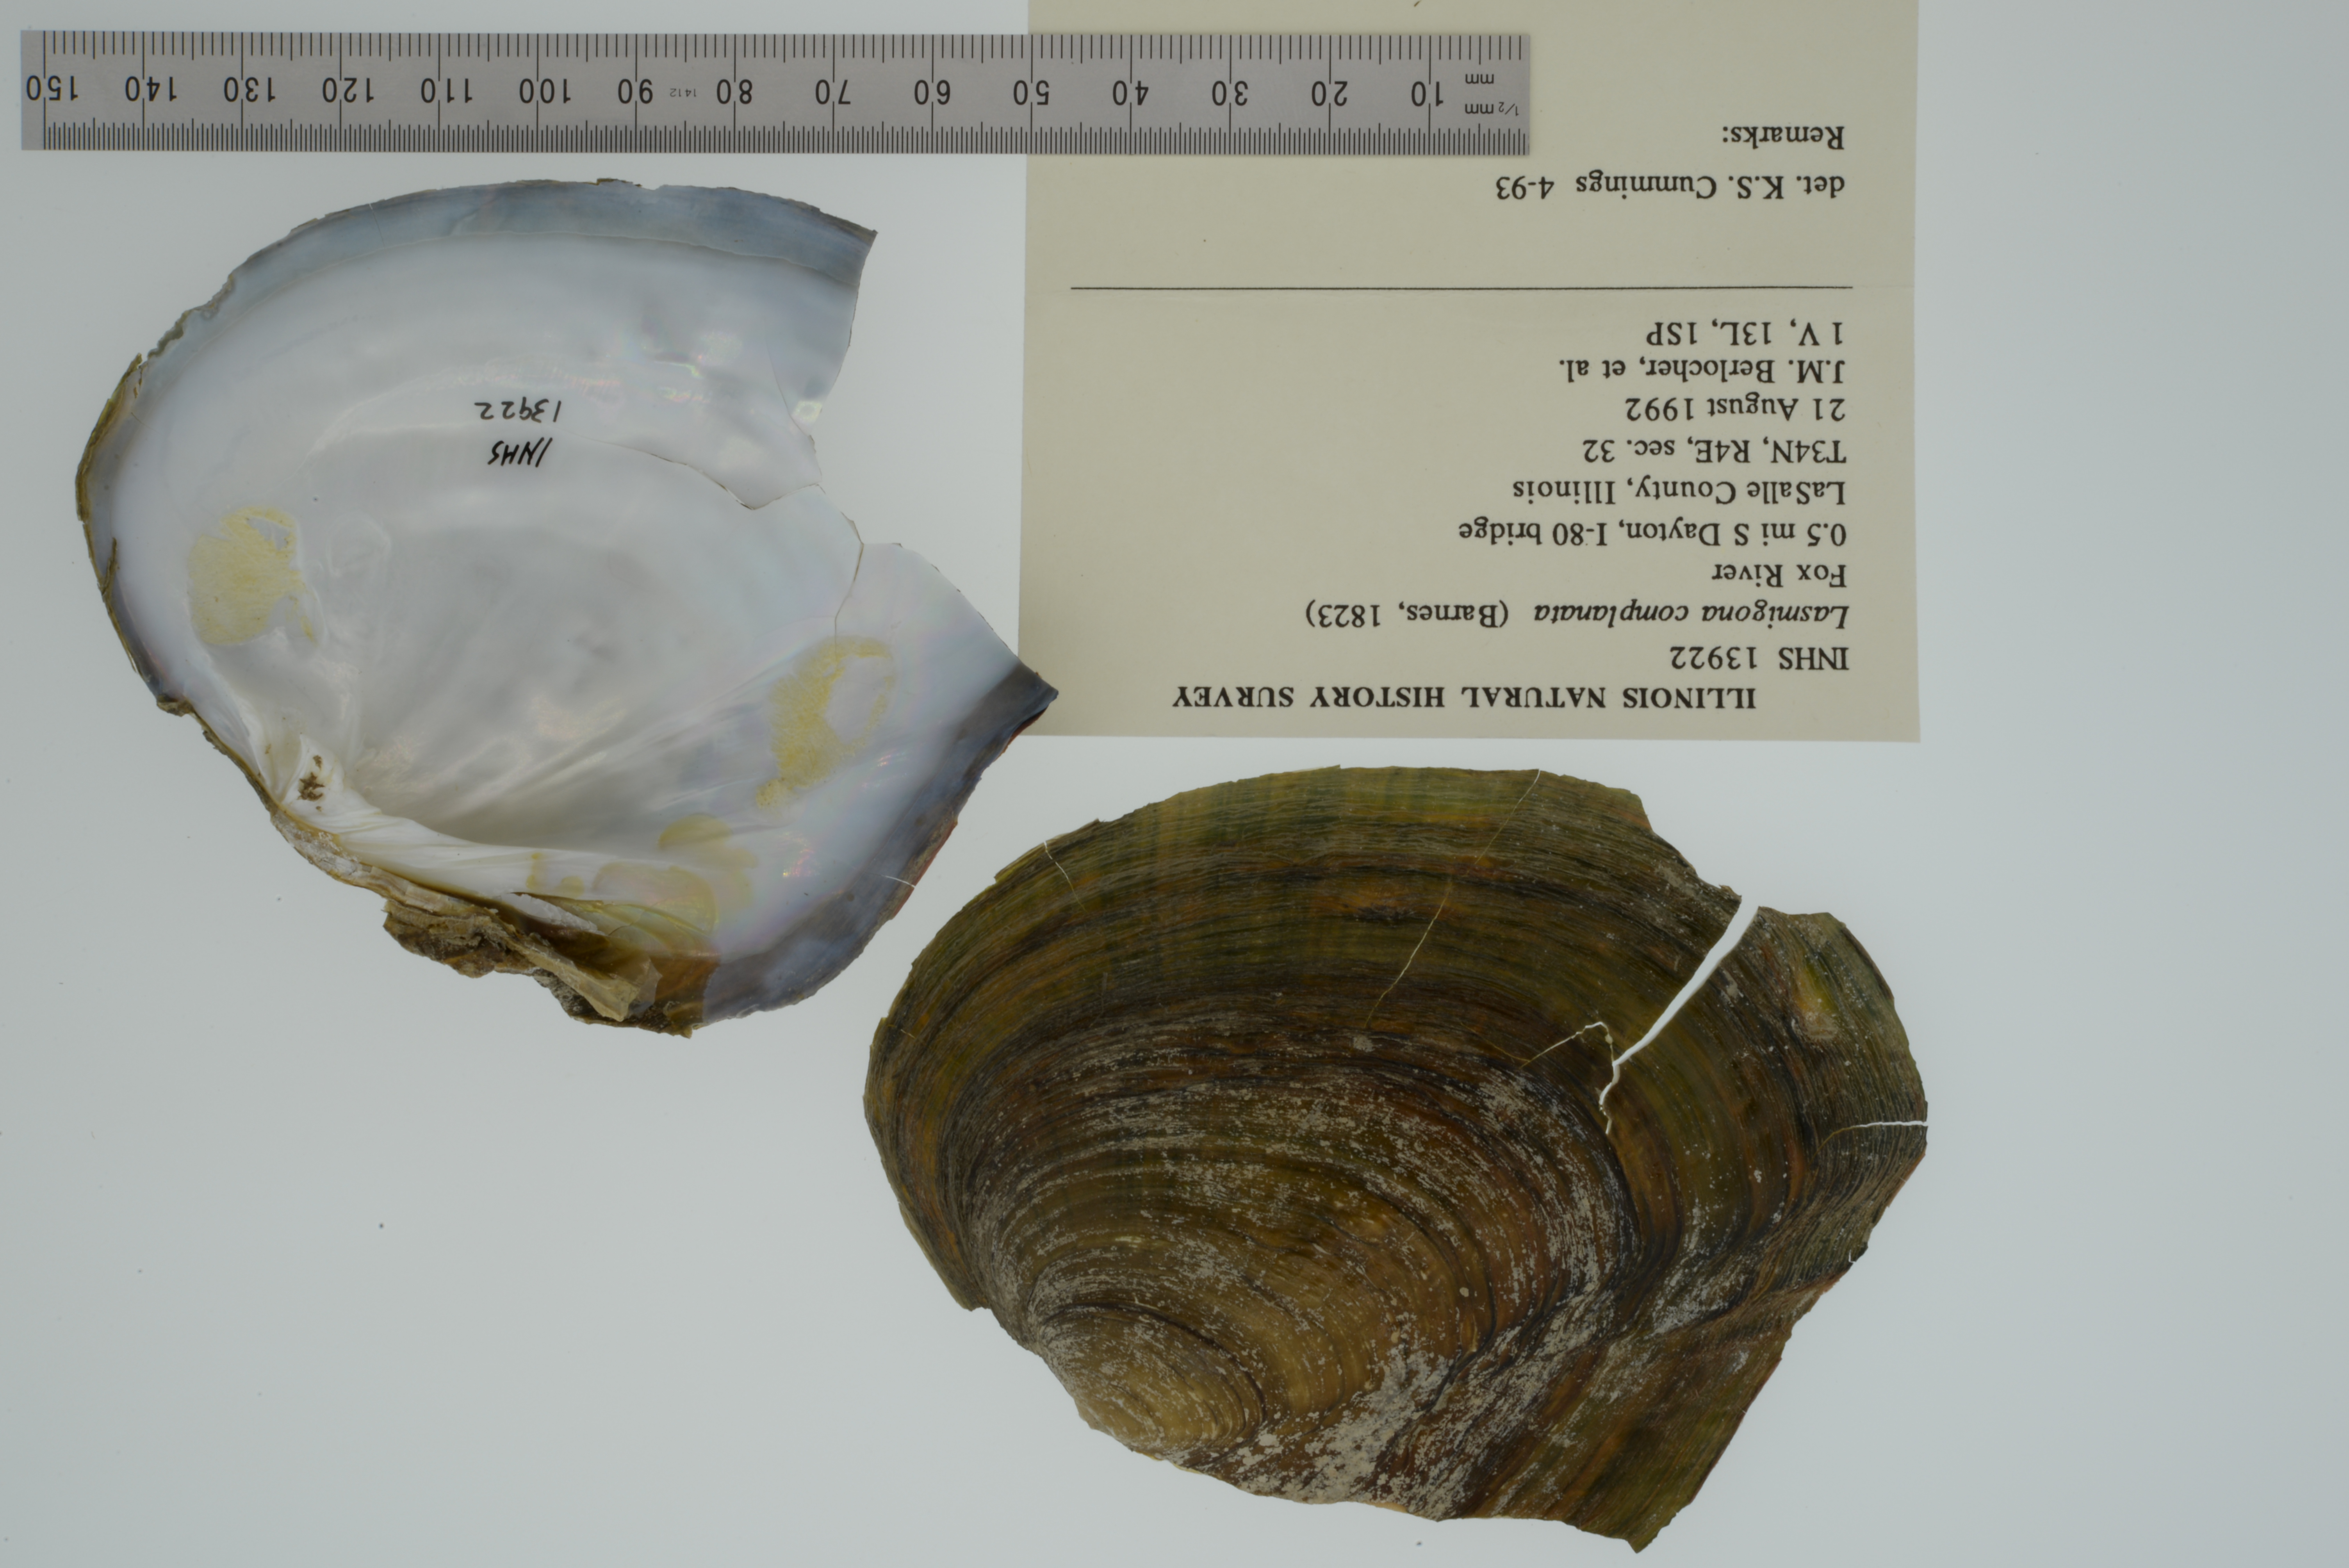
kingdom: Animalia
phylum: Mollusca
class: Bivalvia
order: Unionida
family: Unionidae
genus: Lasmigona
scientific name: Lasmigona complanata
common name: White heelsplitter
